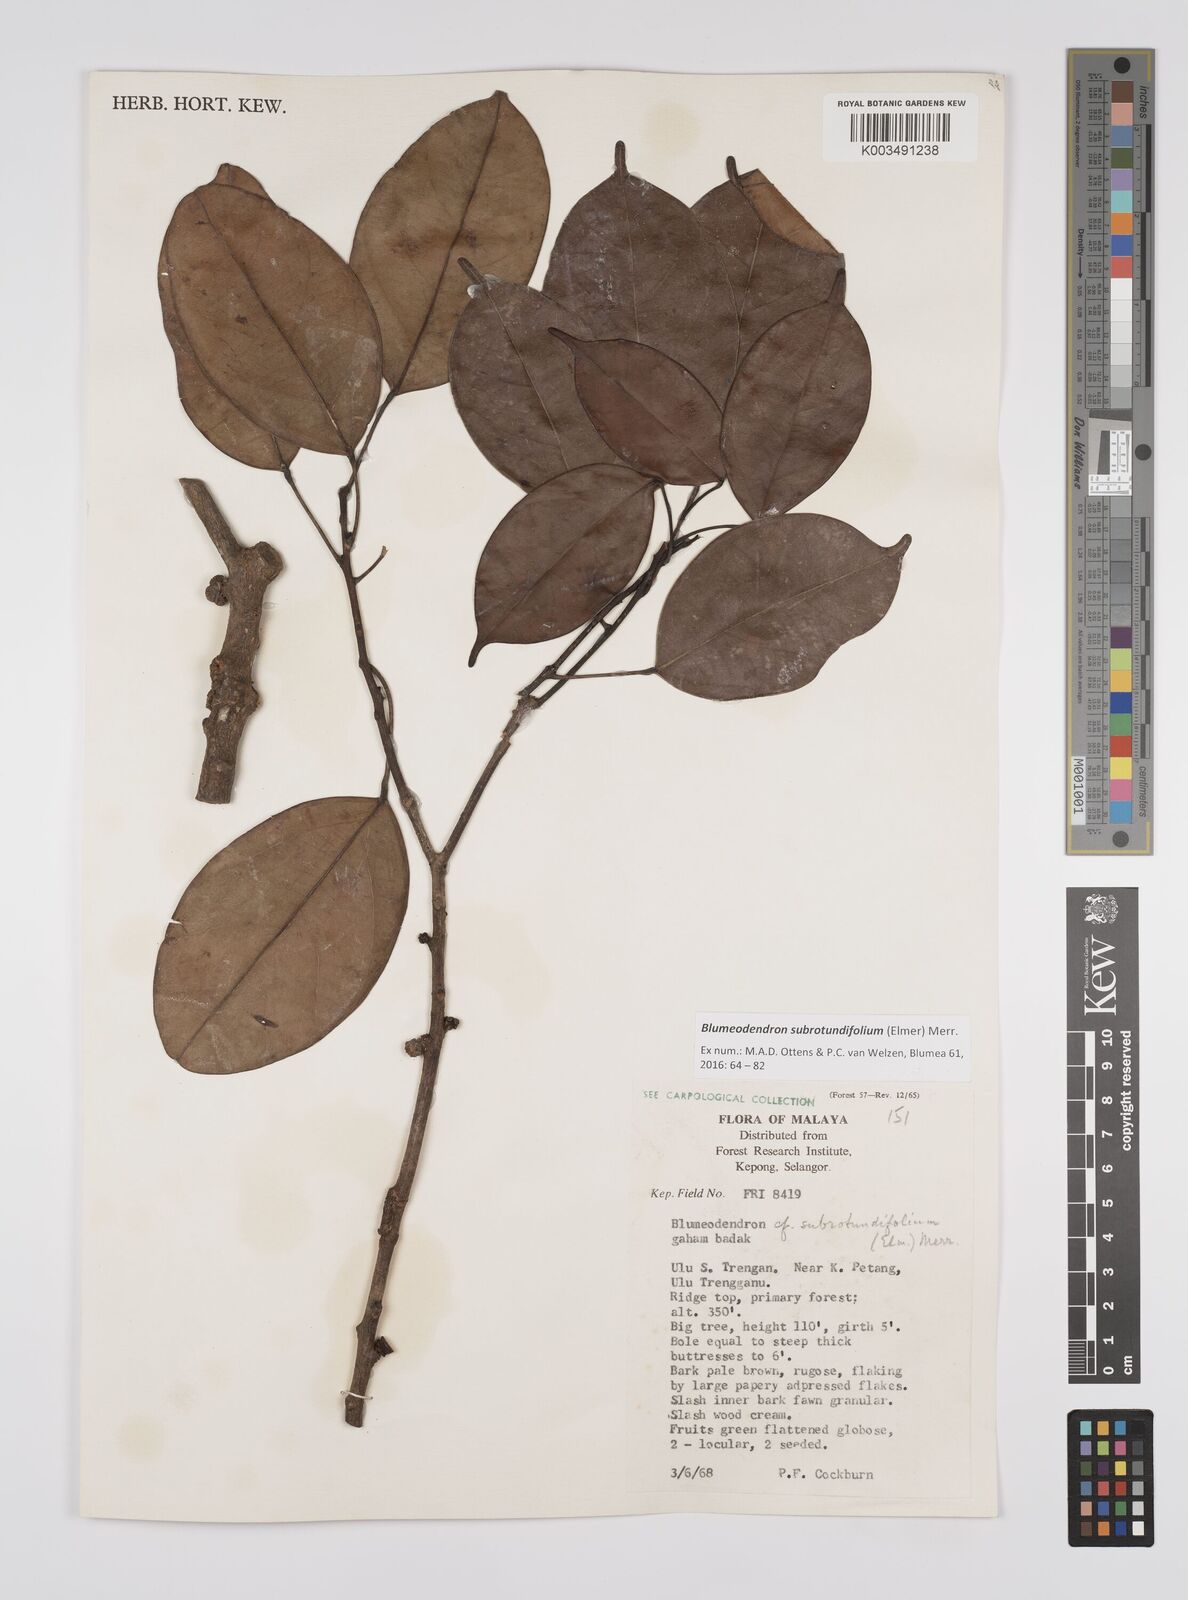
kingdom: Plantae
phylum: Tracheophyta
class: Magnoliopsida
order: Malpighiales
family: Euphorbiaceae
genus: Blumeodendron
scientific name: Blumeodendron subrotundifolium
